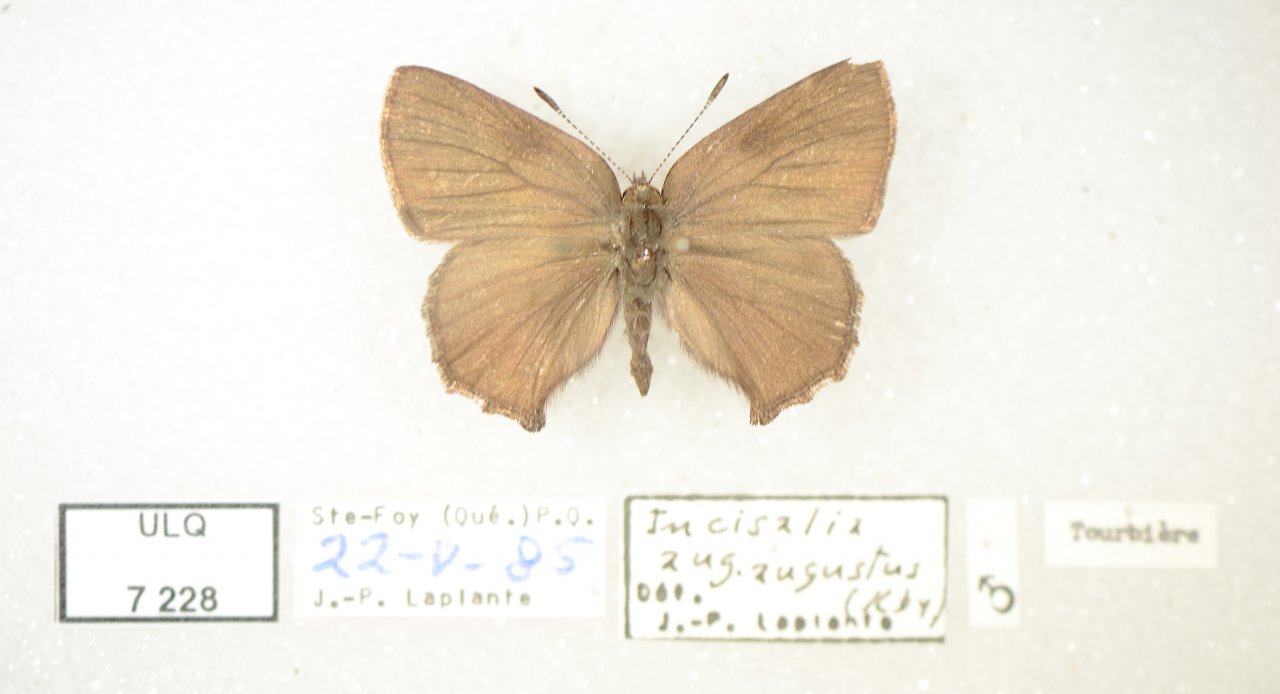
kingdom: Animalia
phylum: Arthropoda
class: Insecta
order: Lepidoptera
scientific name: Lepidoptera
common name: Butterflies
